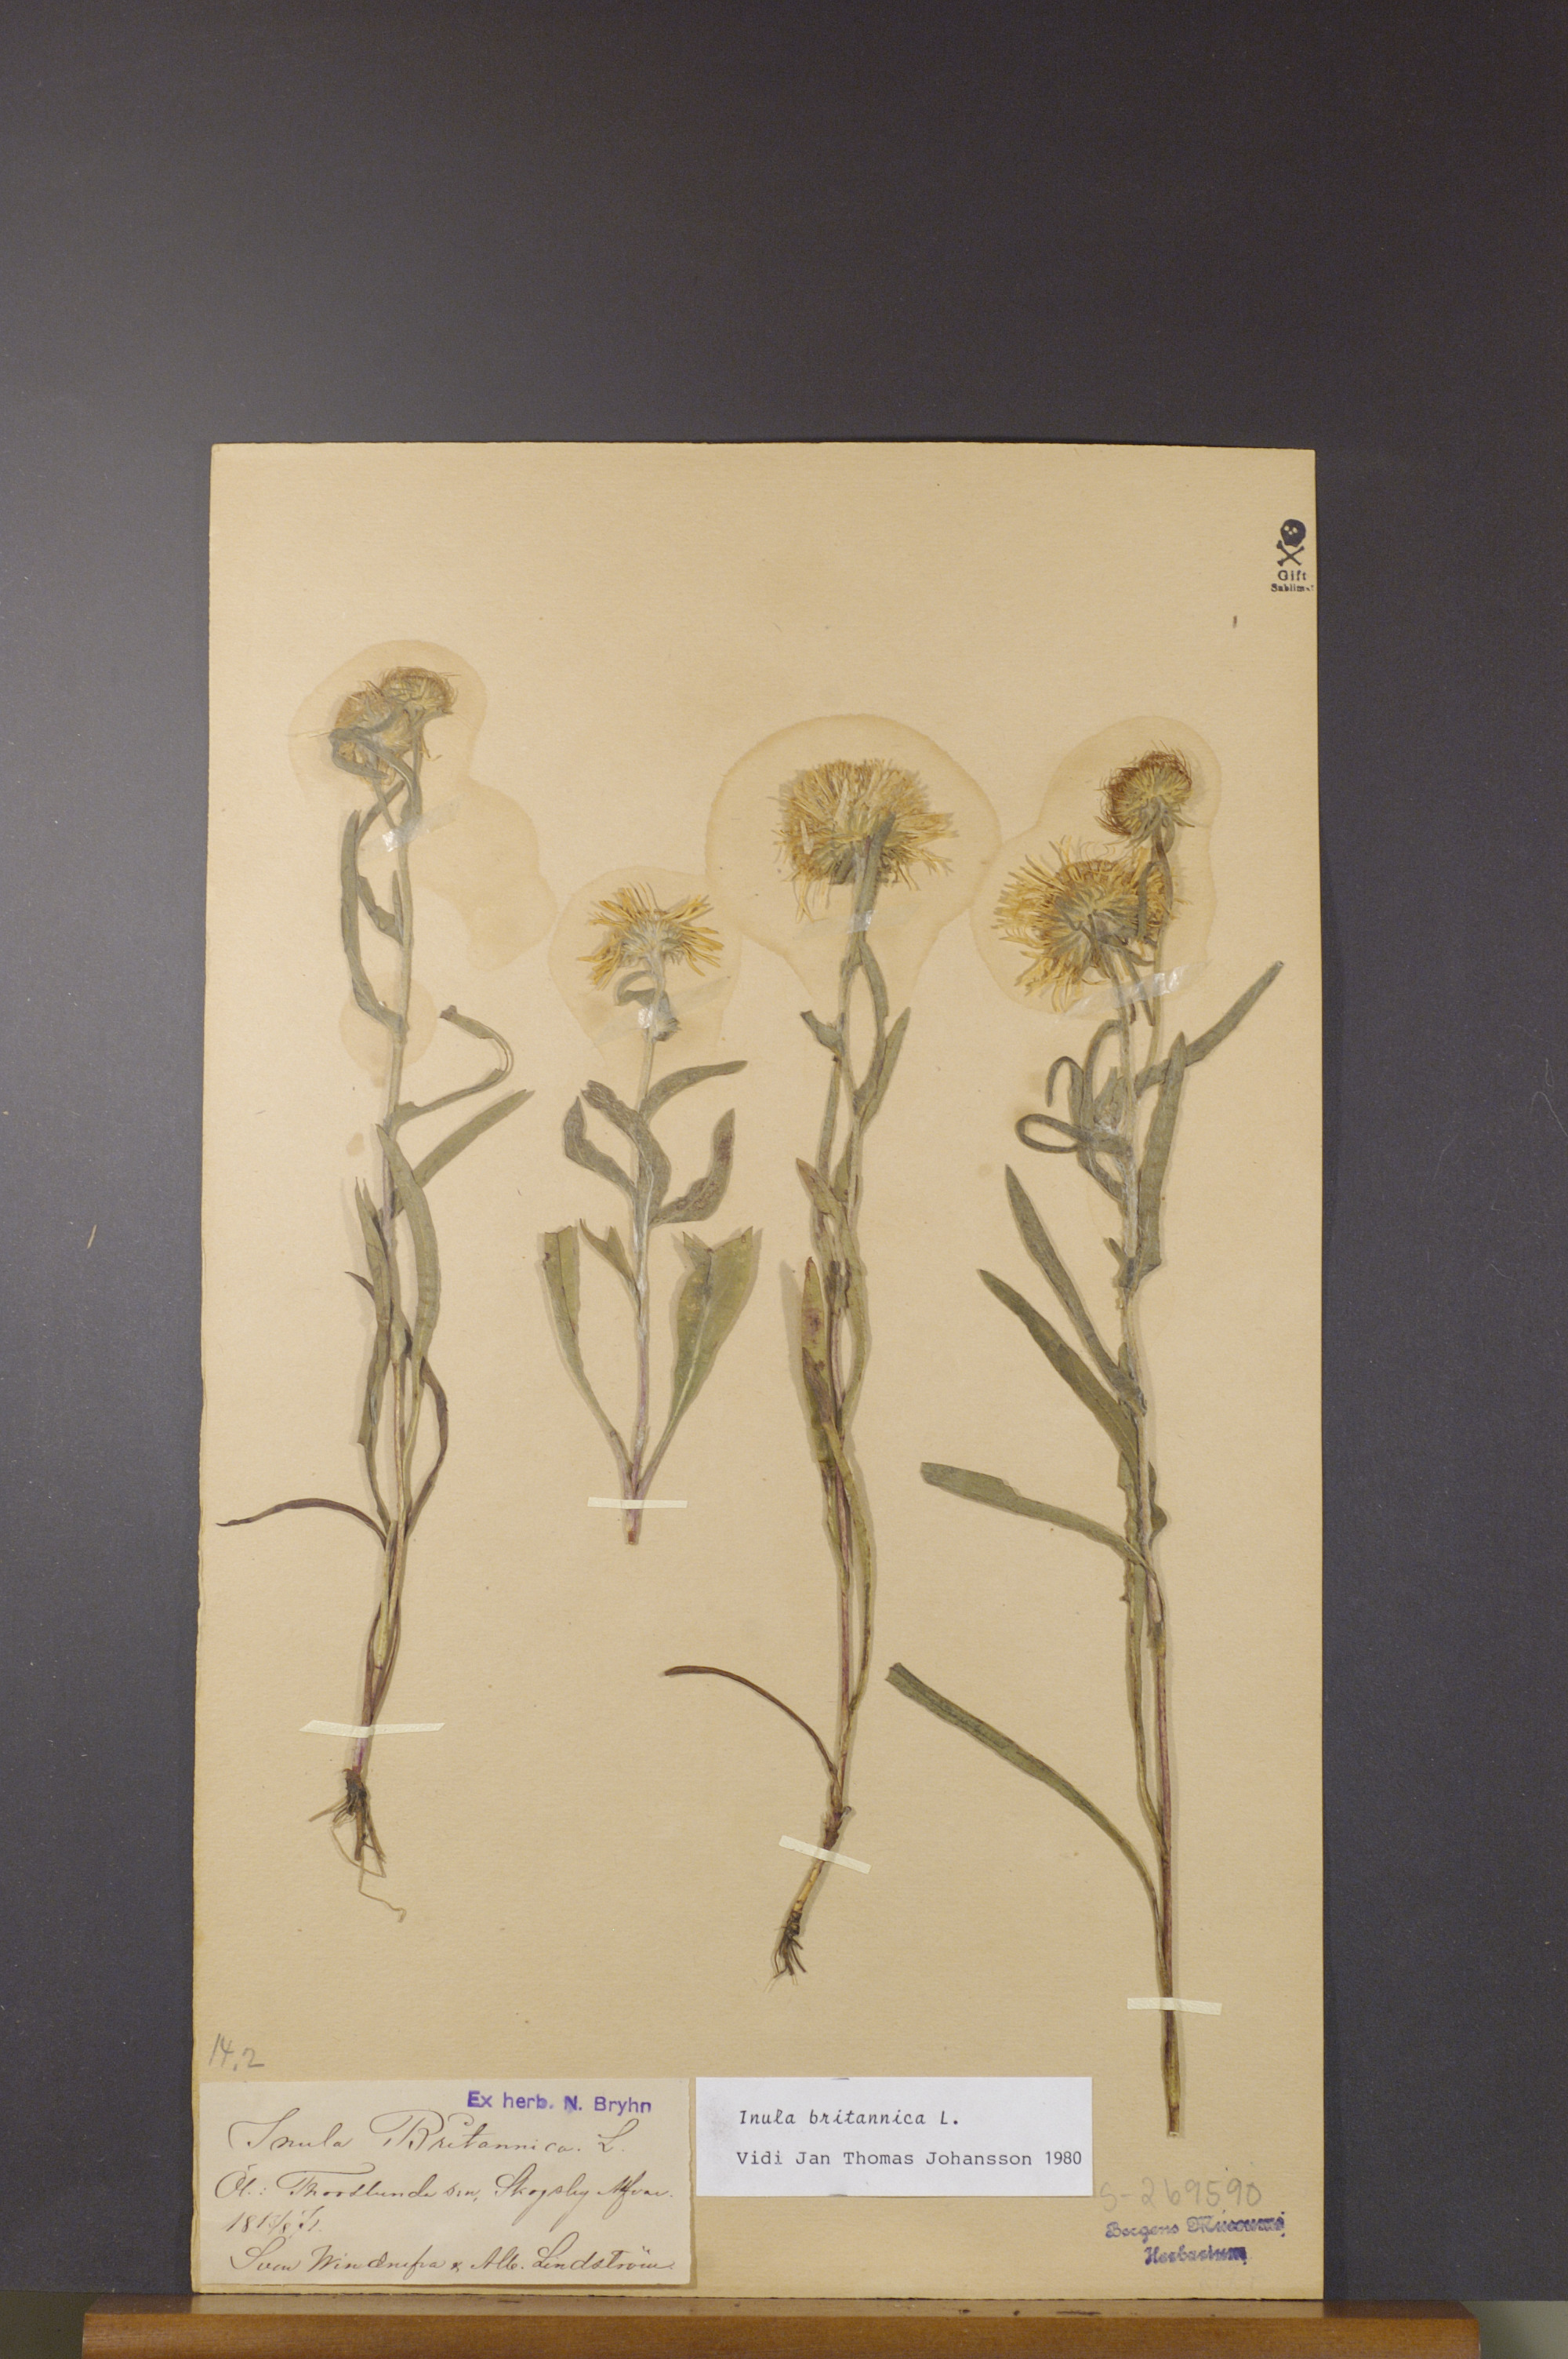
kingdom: Plantae
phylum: Tracheophyta
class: Magnoliopsida
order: Asterales
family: Asteraceae
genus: Pentanema
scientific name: Pentanema britannicum
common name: British elecampane
